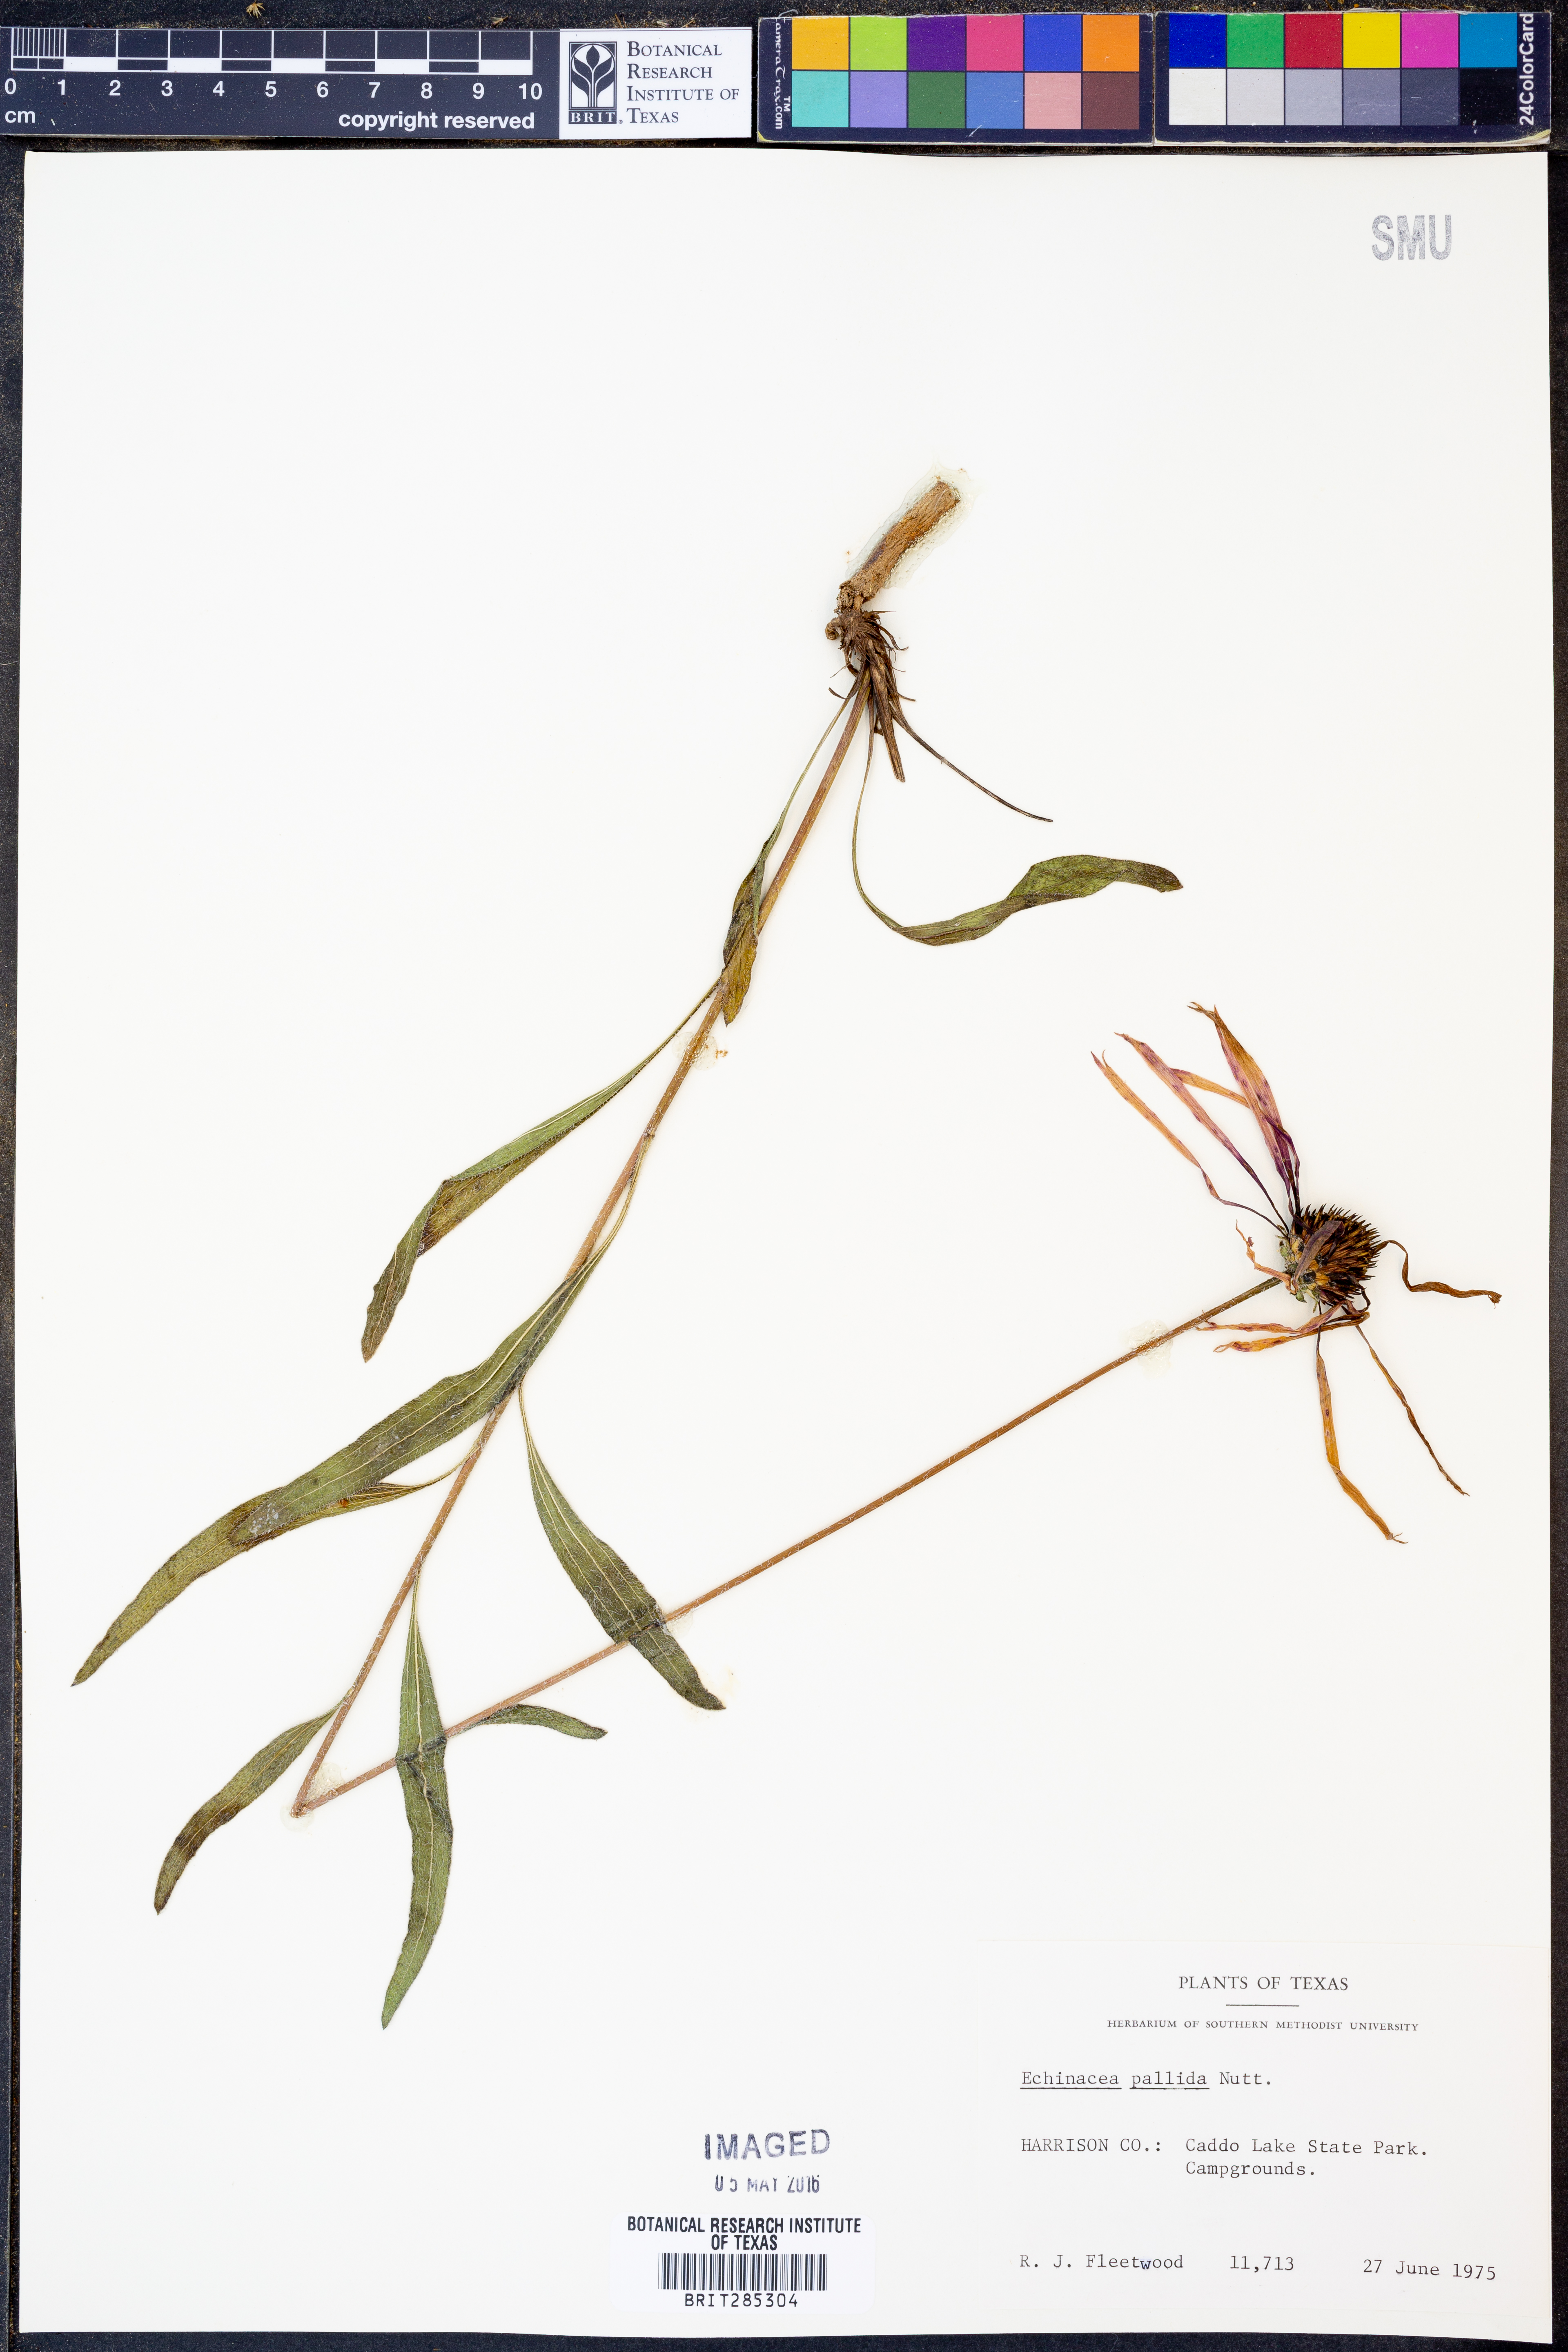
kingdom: Plantae
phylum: Tracheophyta
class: Magnoliopsida
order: Asterales
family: Asteraceae
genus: Echinacea
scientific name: Echinacea pallida
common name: Pale echinacea
